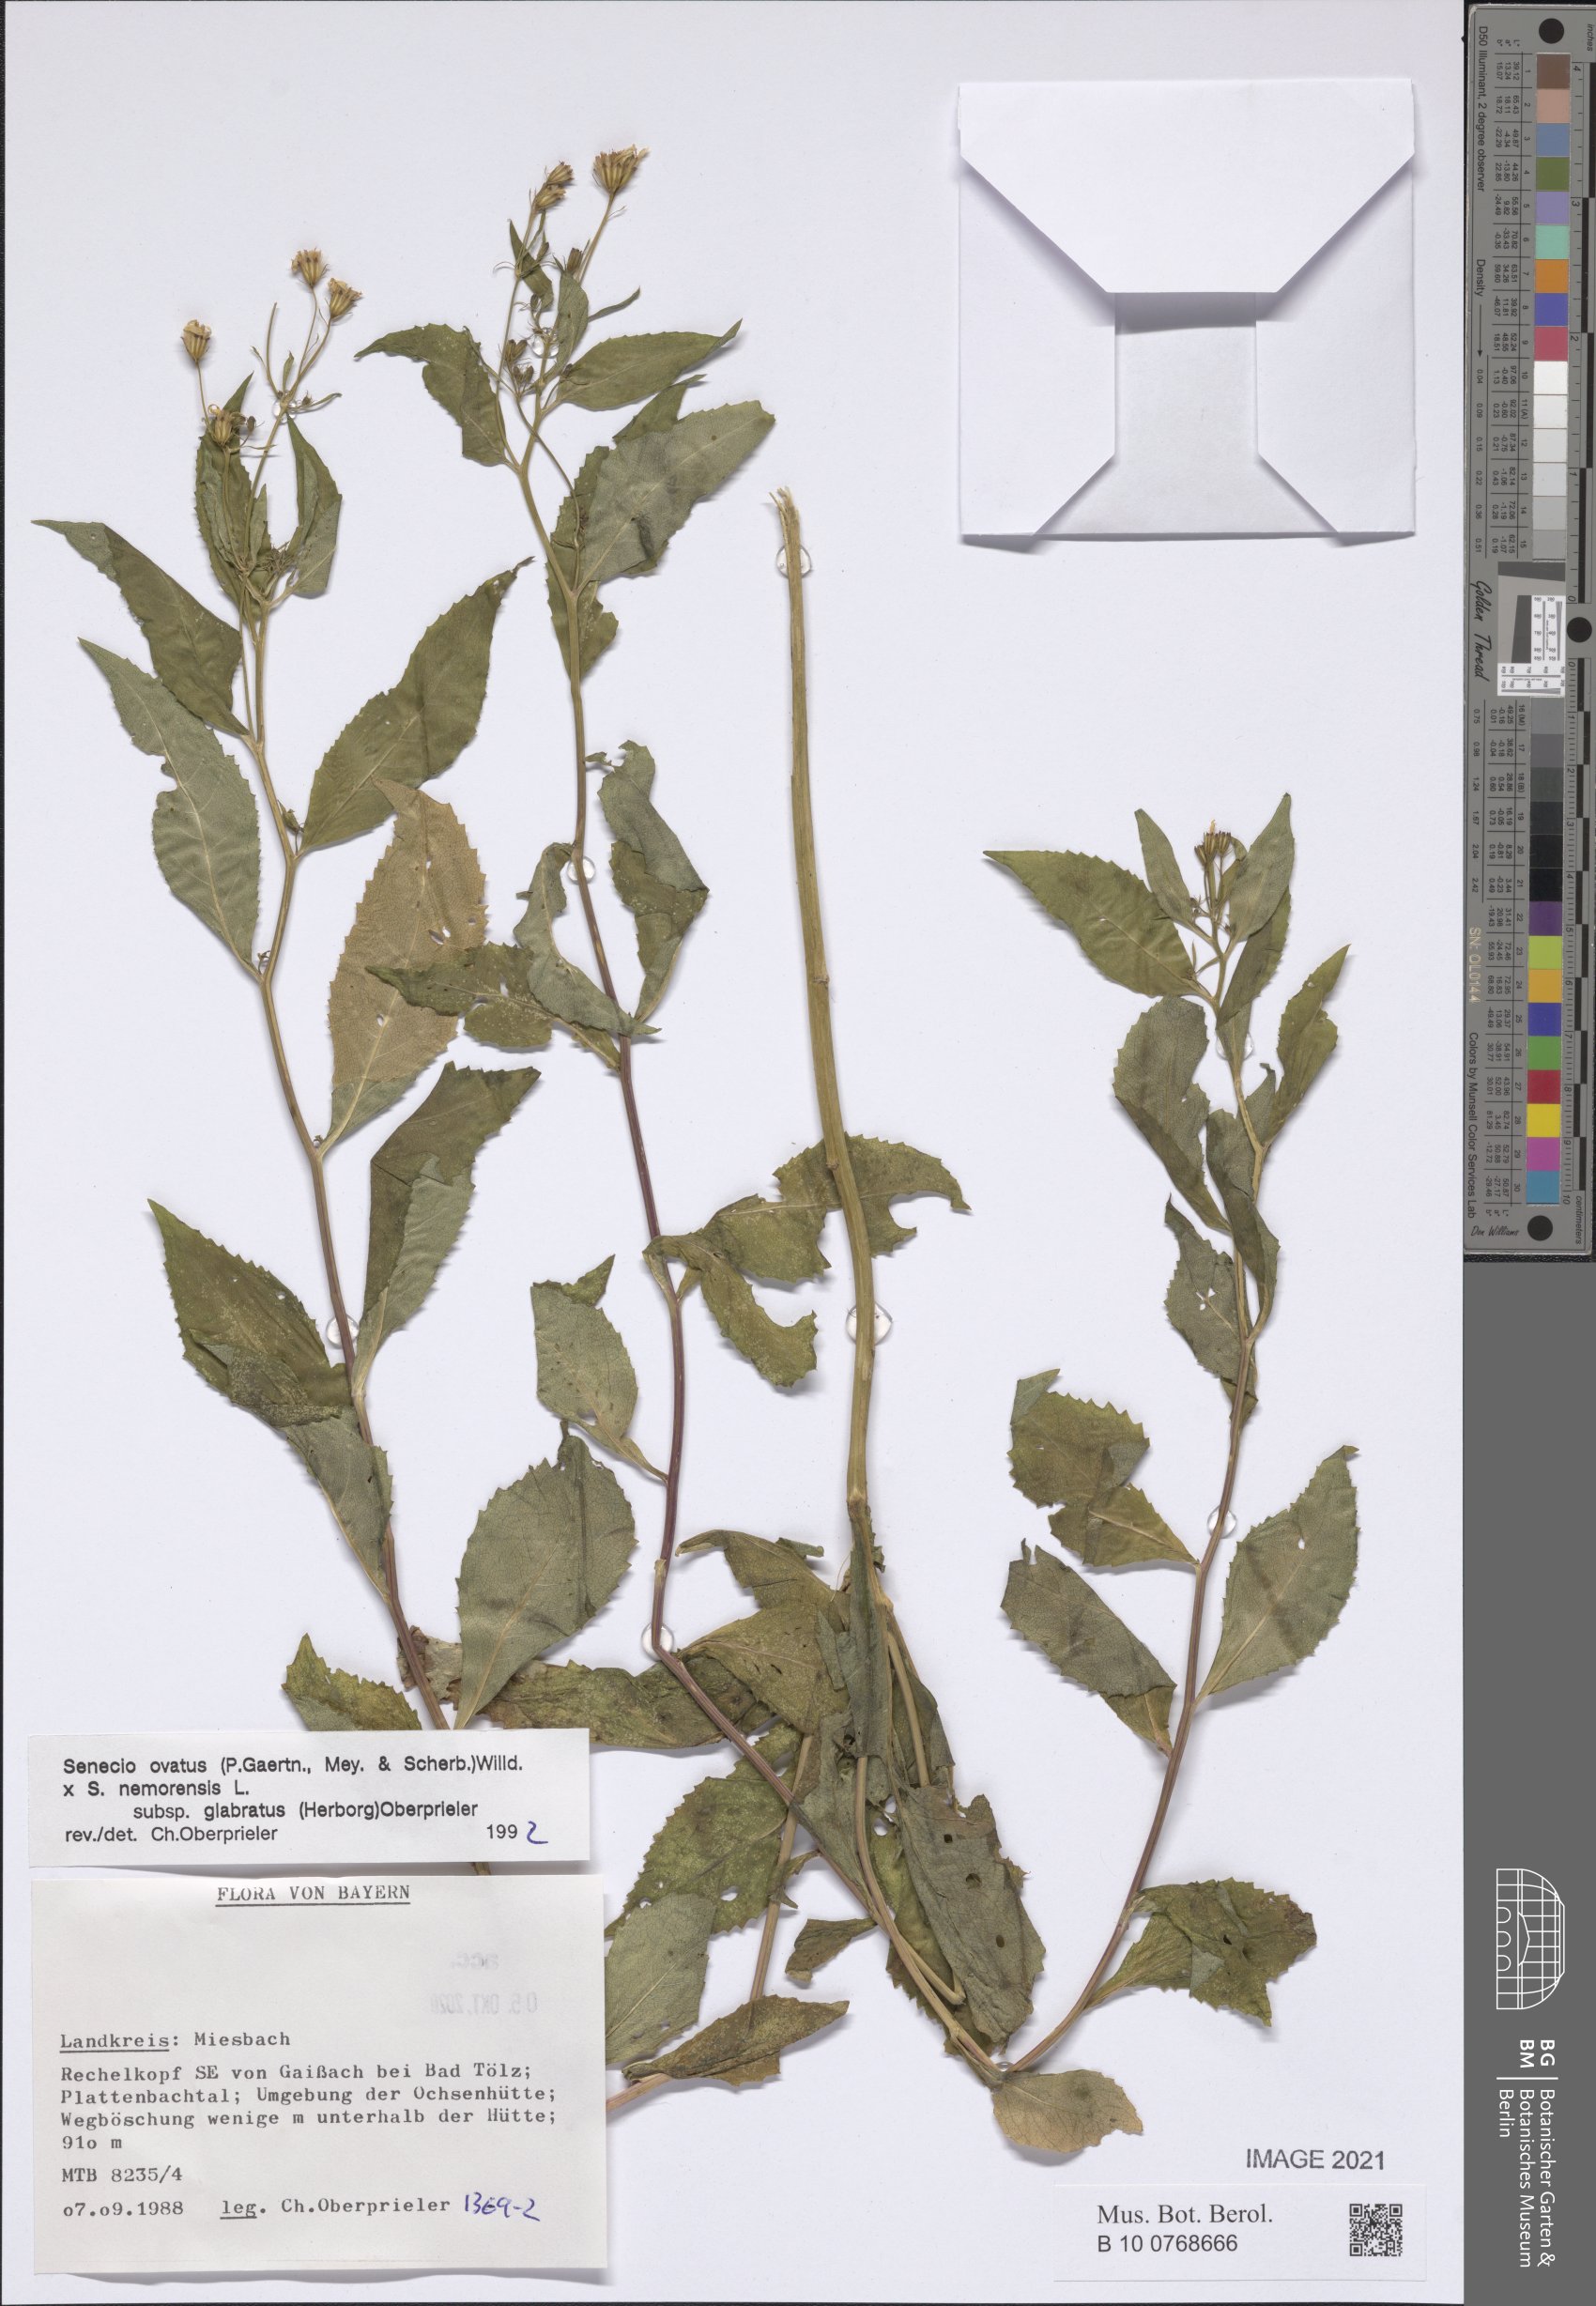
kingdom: Plantae
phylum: Tracheophyta
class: Magnoliopsida
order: Asterales
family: Asteraceae
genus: Senecio
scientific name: Senecio ovatus
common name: Wood ragwort
